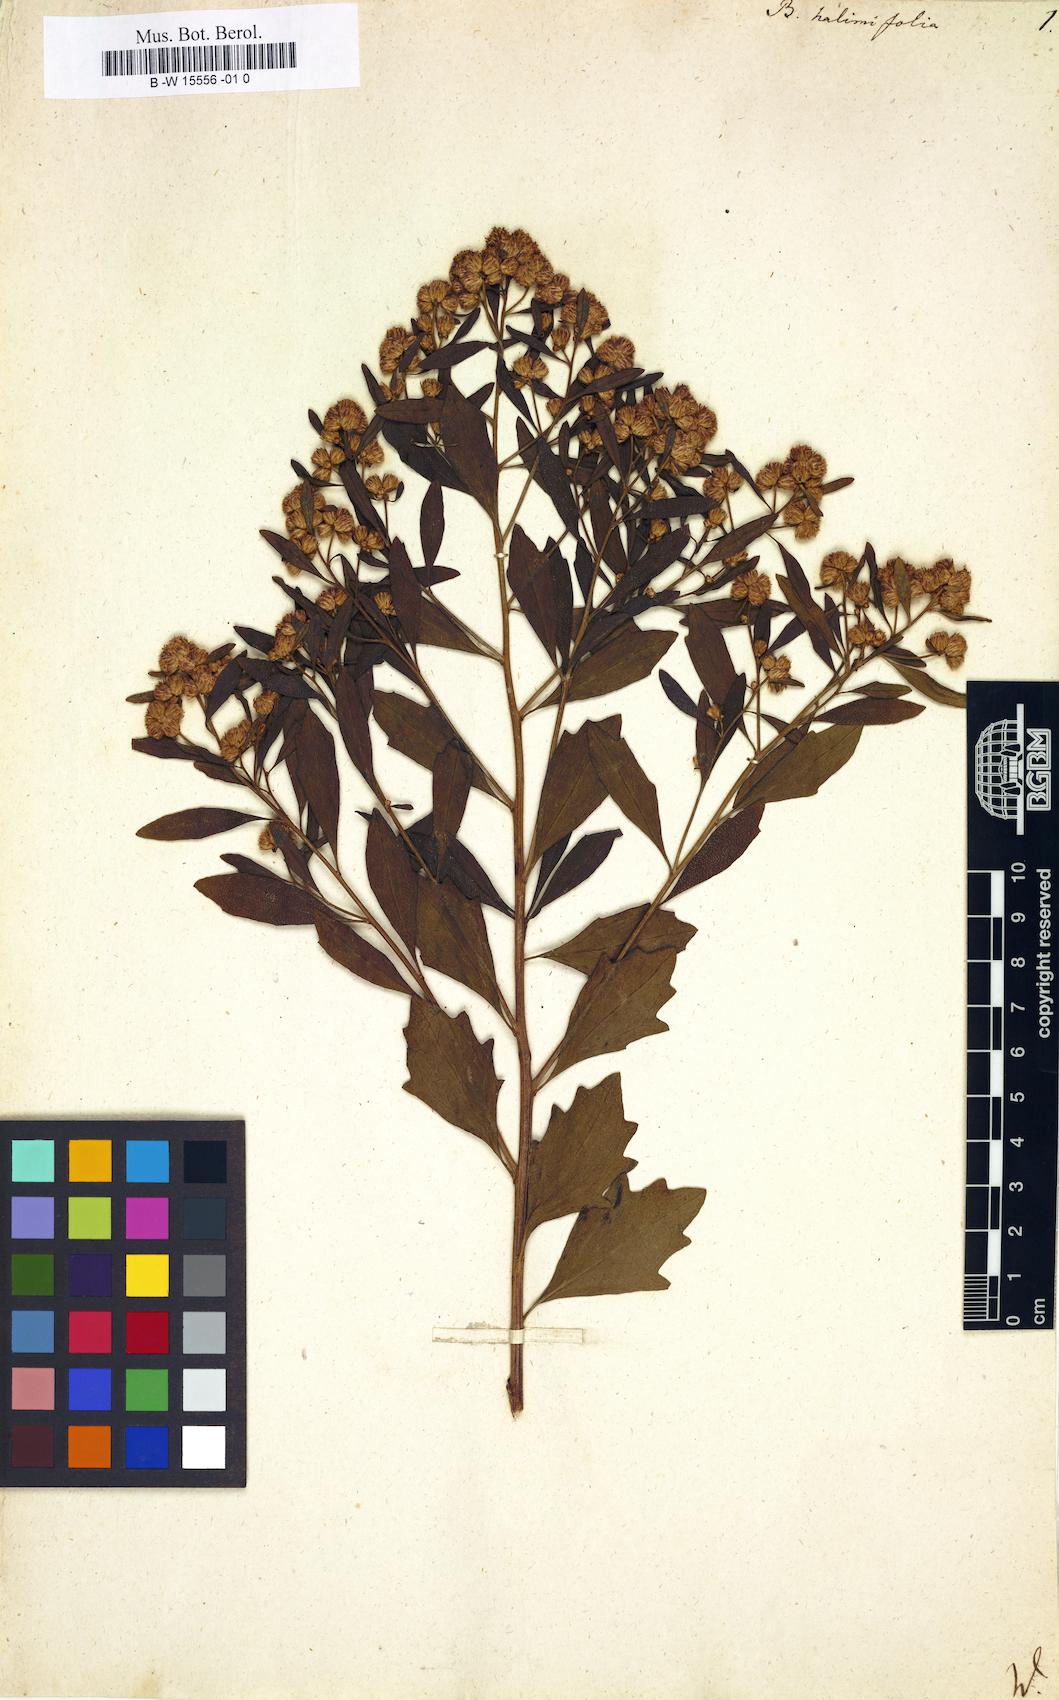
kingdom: Plantae
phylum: Tracheophyta
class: Magnoliopsida
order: Asterales
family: Asteraceae
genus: Baccharis
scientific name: Baccharis halimifolia
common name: Eastern baccharis
